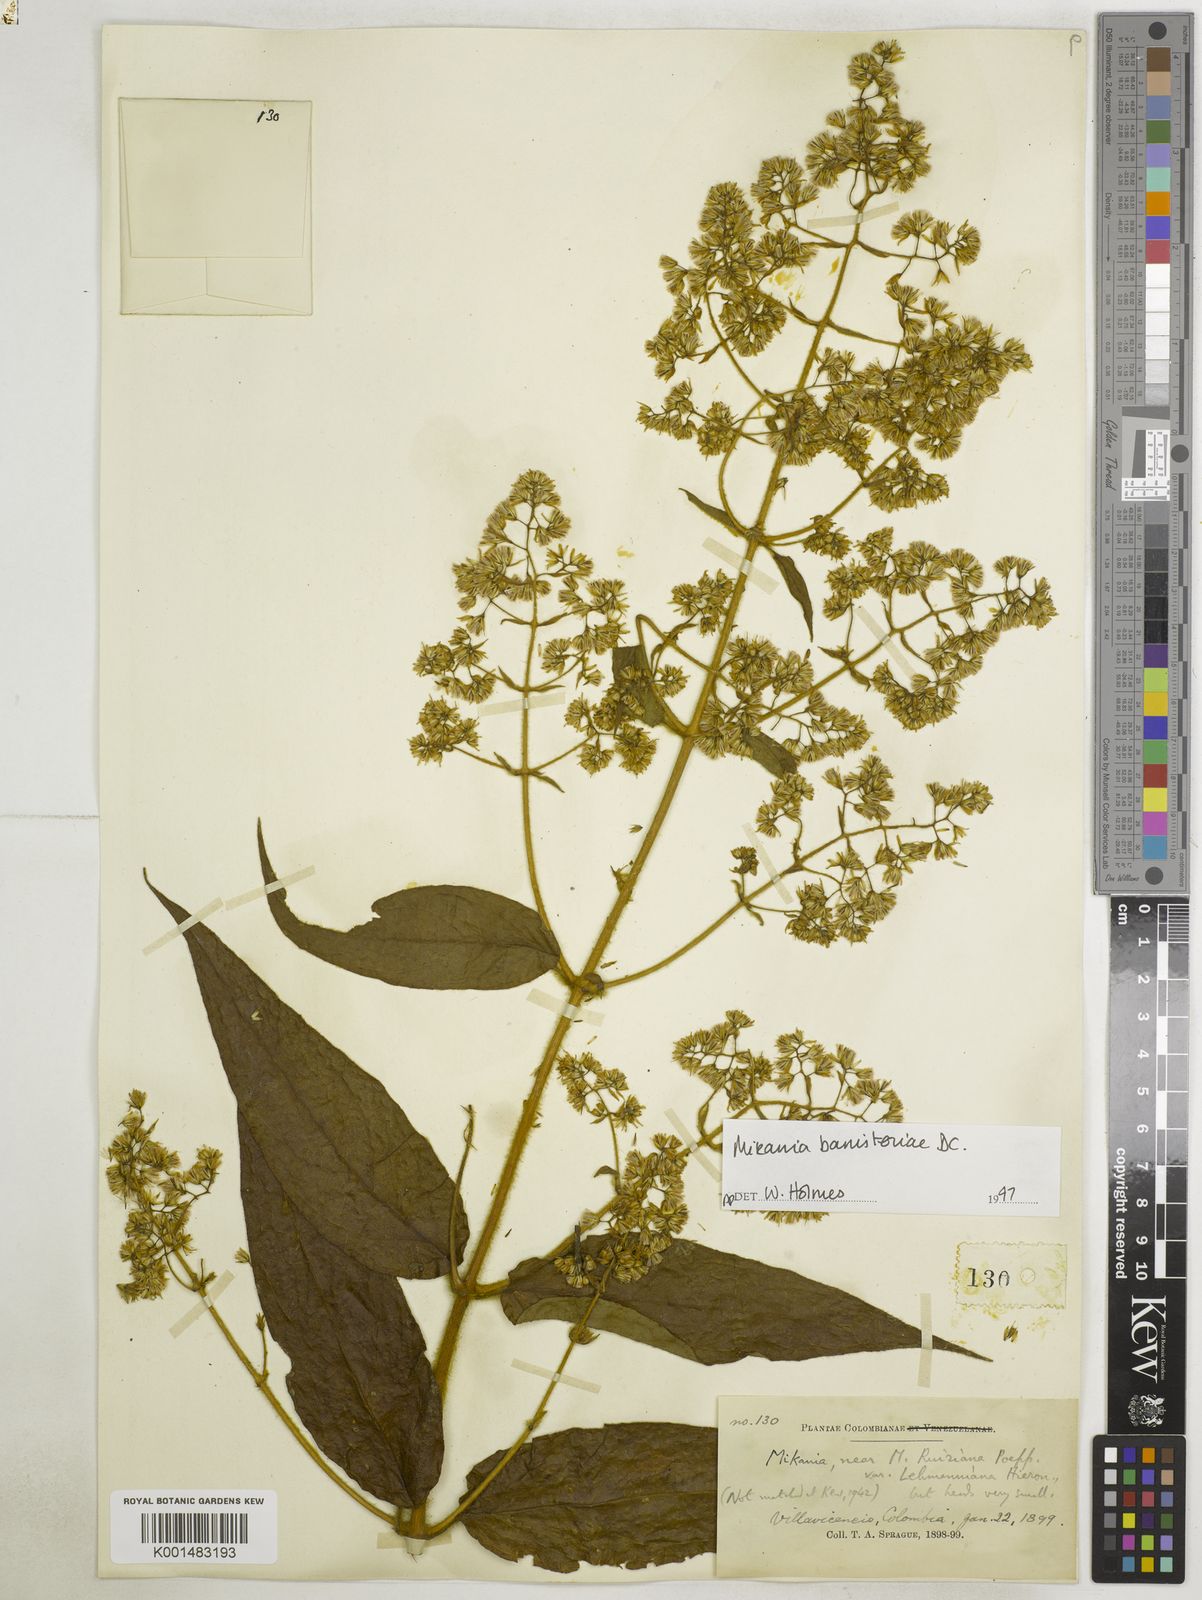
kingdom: Plantae
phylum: Tracheophyta
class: Magnoliopsida
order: Asterales
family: Asteraceae
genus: Mikania
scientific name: Mikania banisteriae
